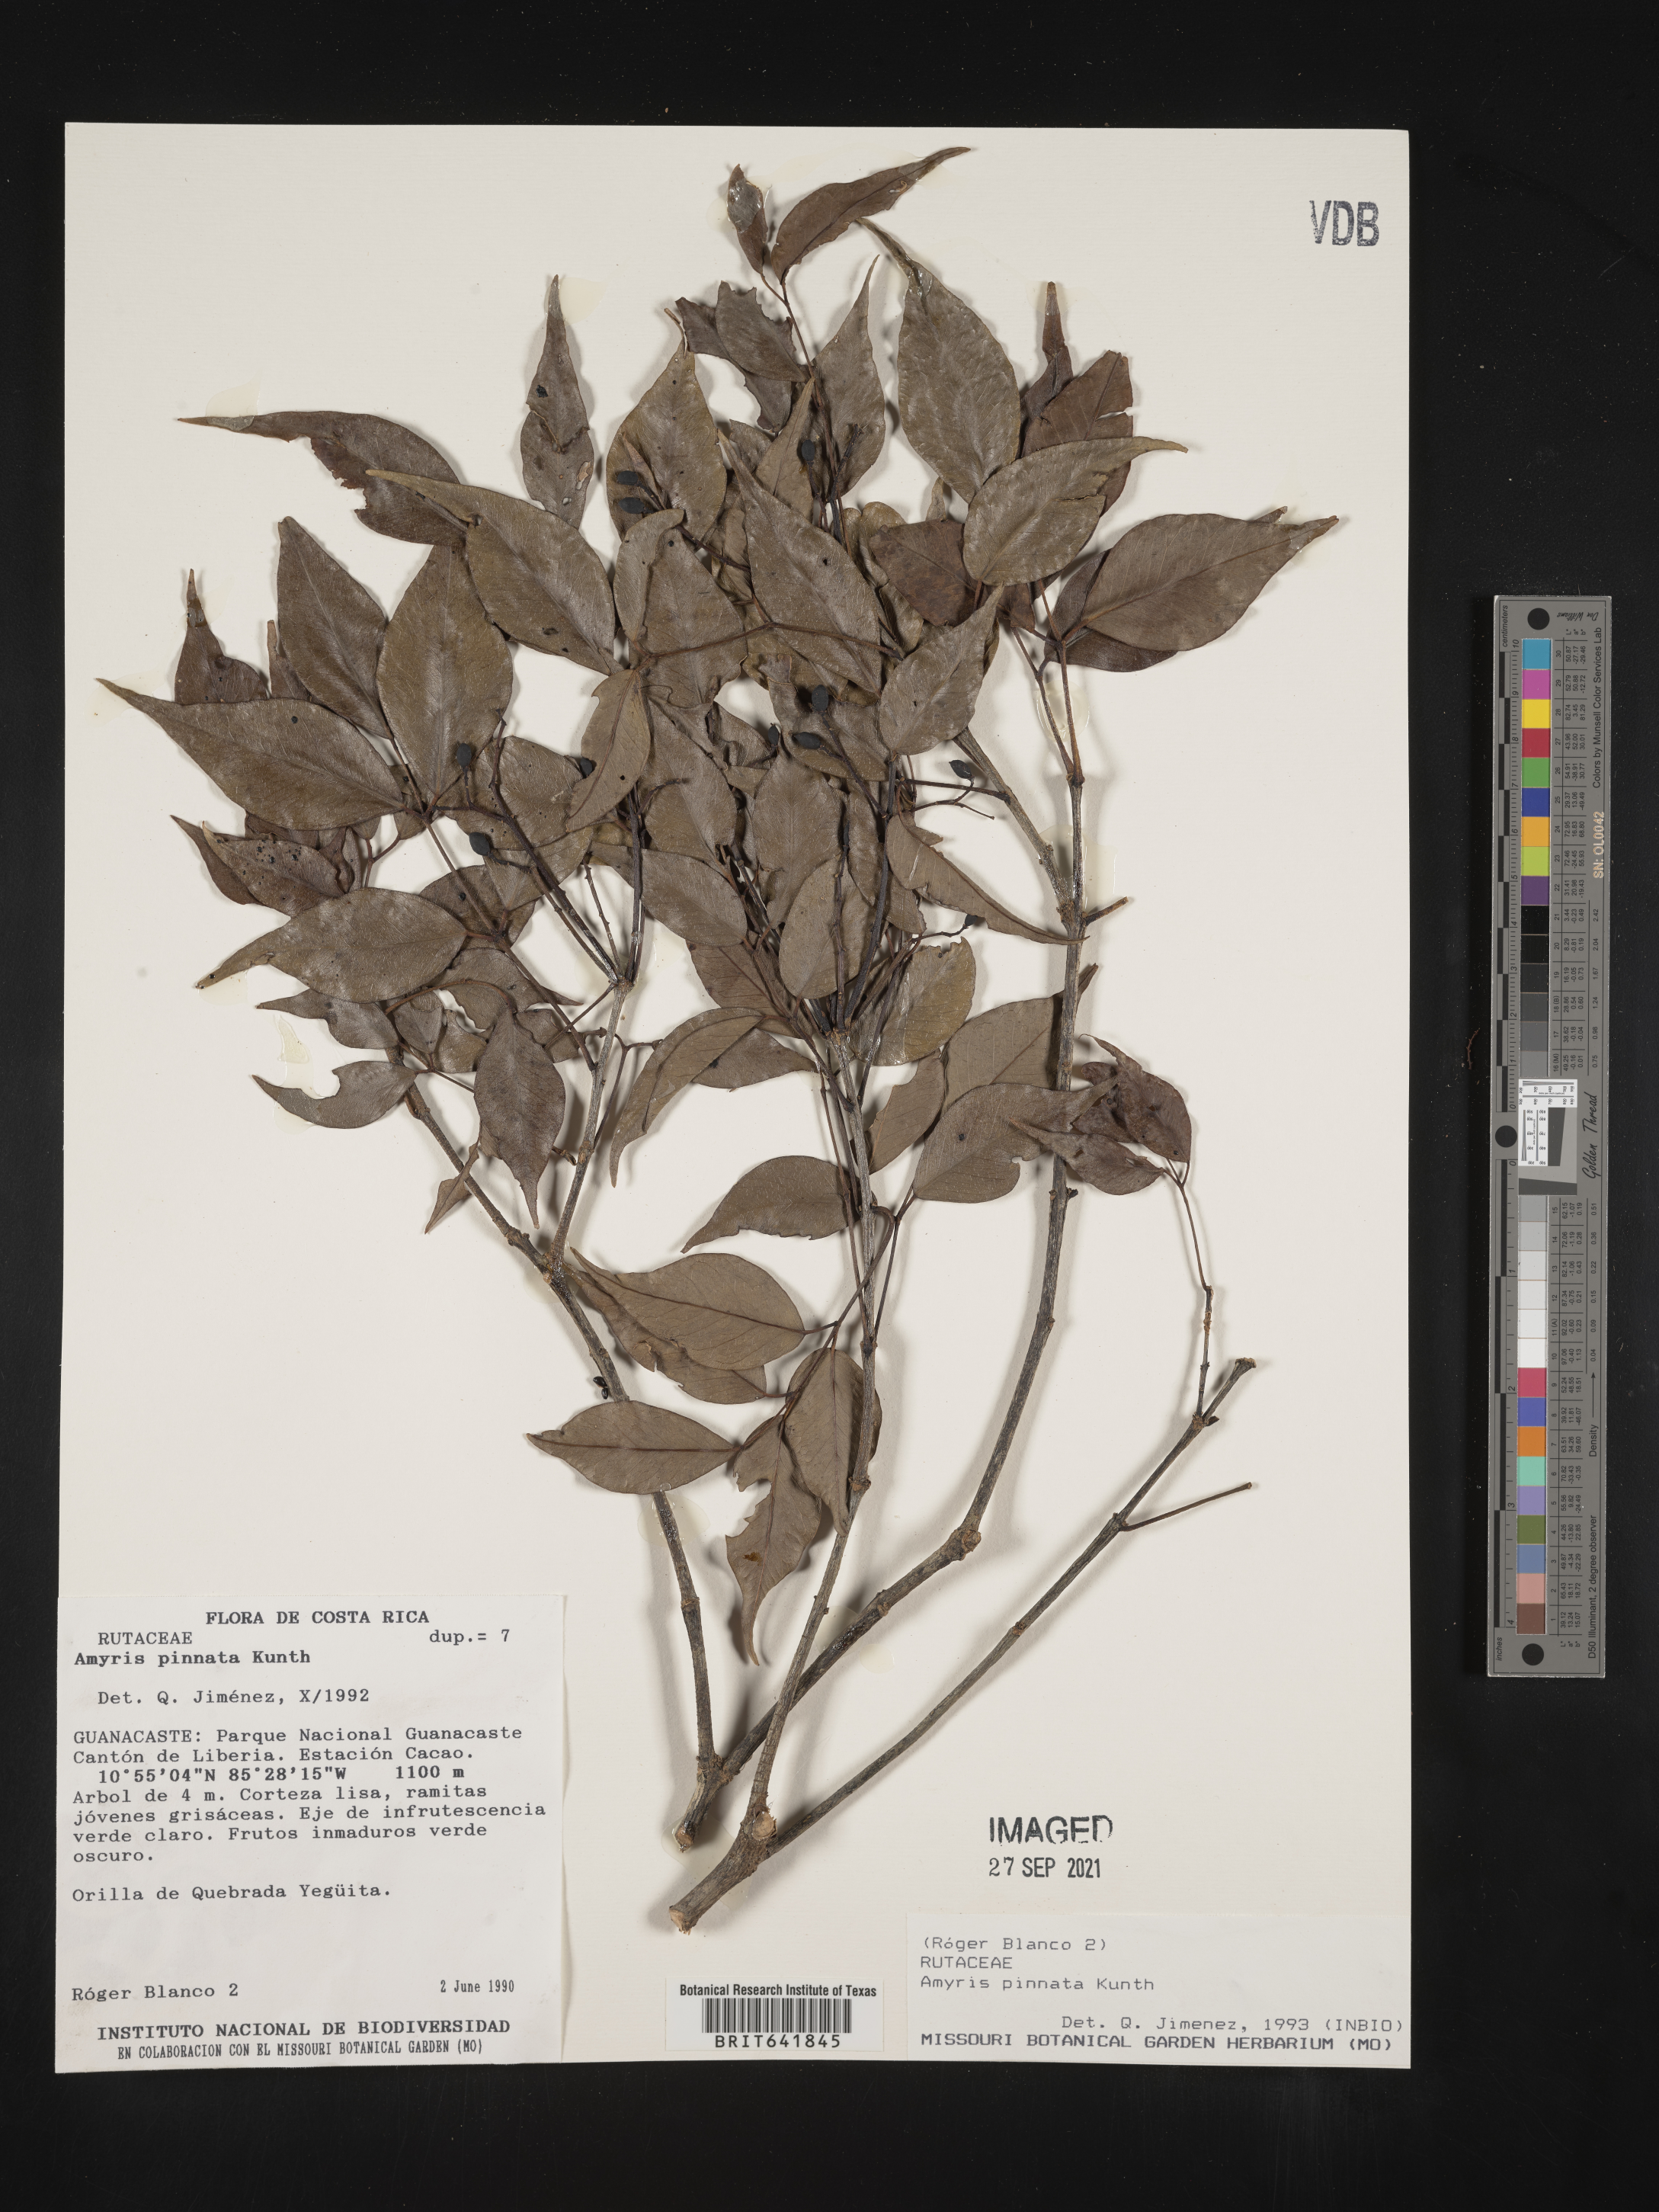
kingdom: Plantae
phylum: Tracheophyta
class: Magnoliopsida
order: Sapindales
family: Rutaceae
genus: Amyris
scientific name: Amyris
